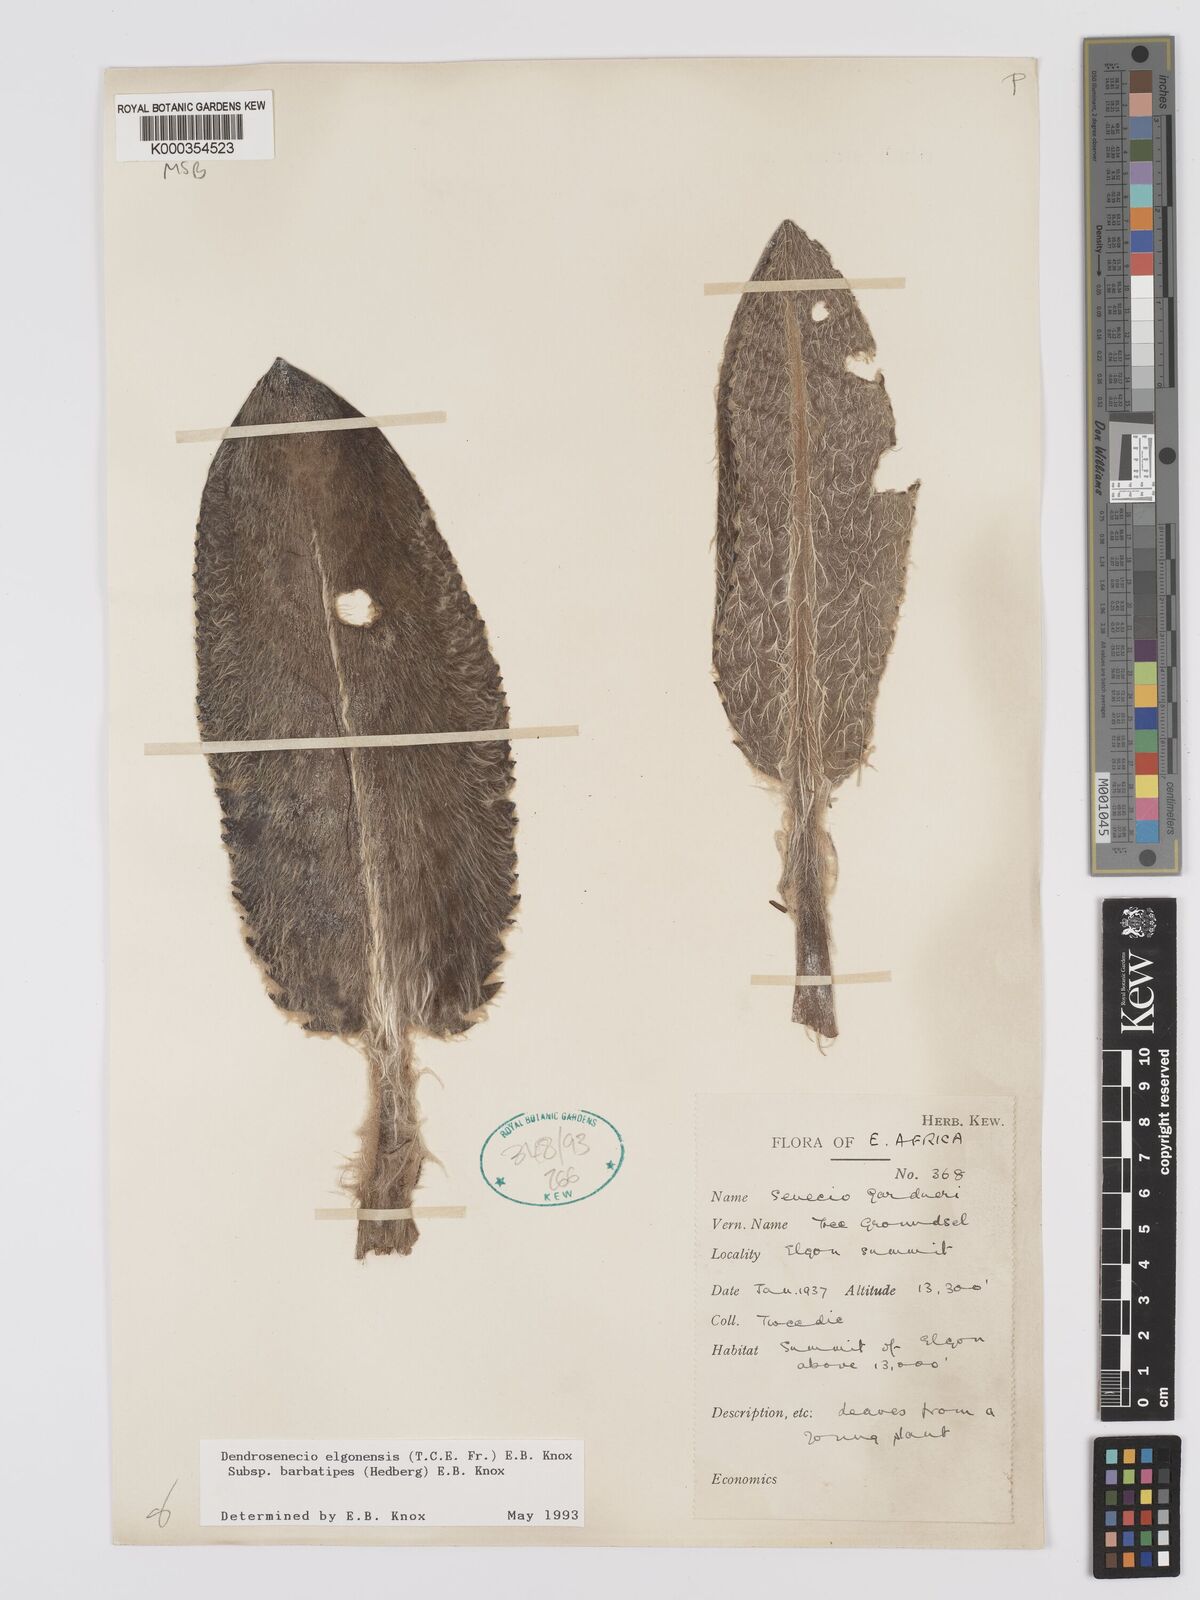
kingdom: Plantae
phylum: Tracheophyta
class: Magnoliopsida
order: Asterales
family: Asteraceae
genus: Dendrosenecio
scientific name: Dendrosenecio elgonensis
